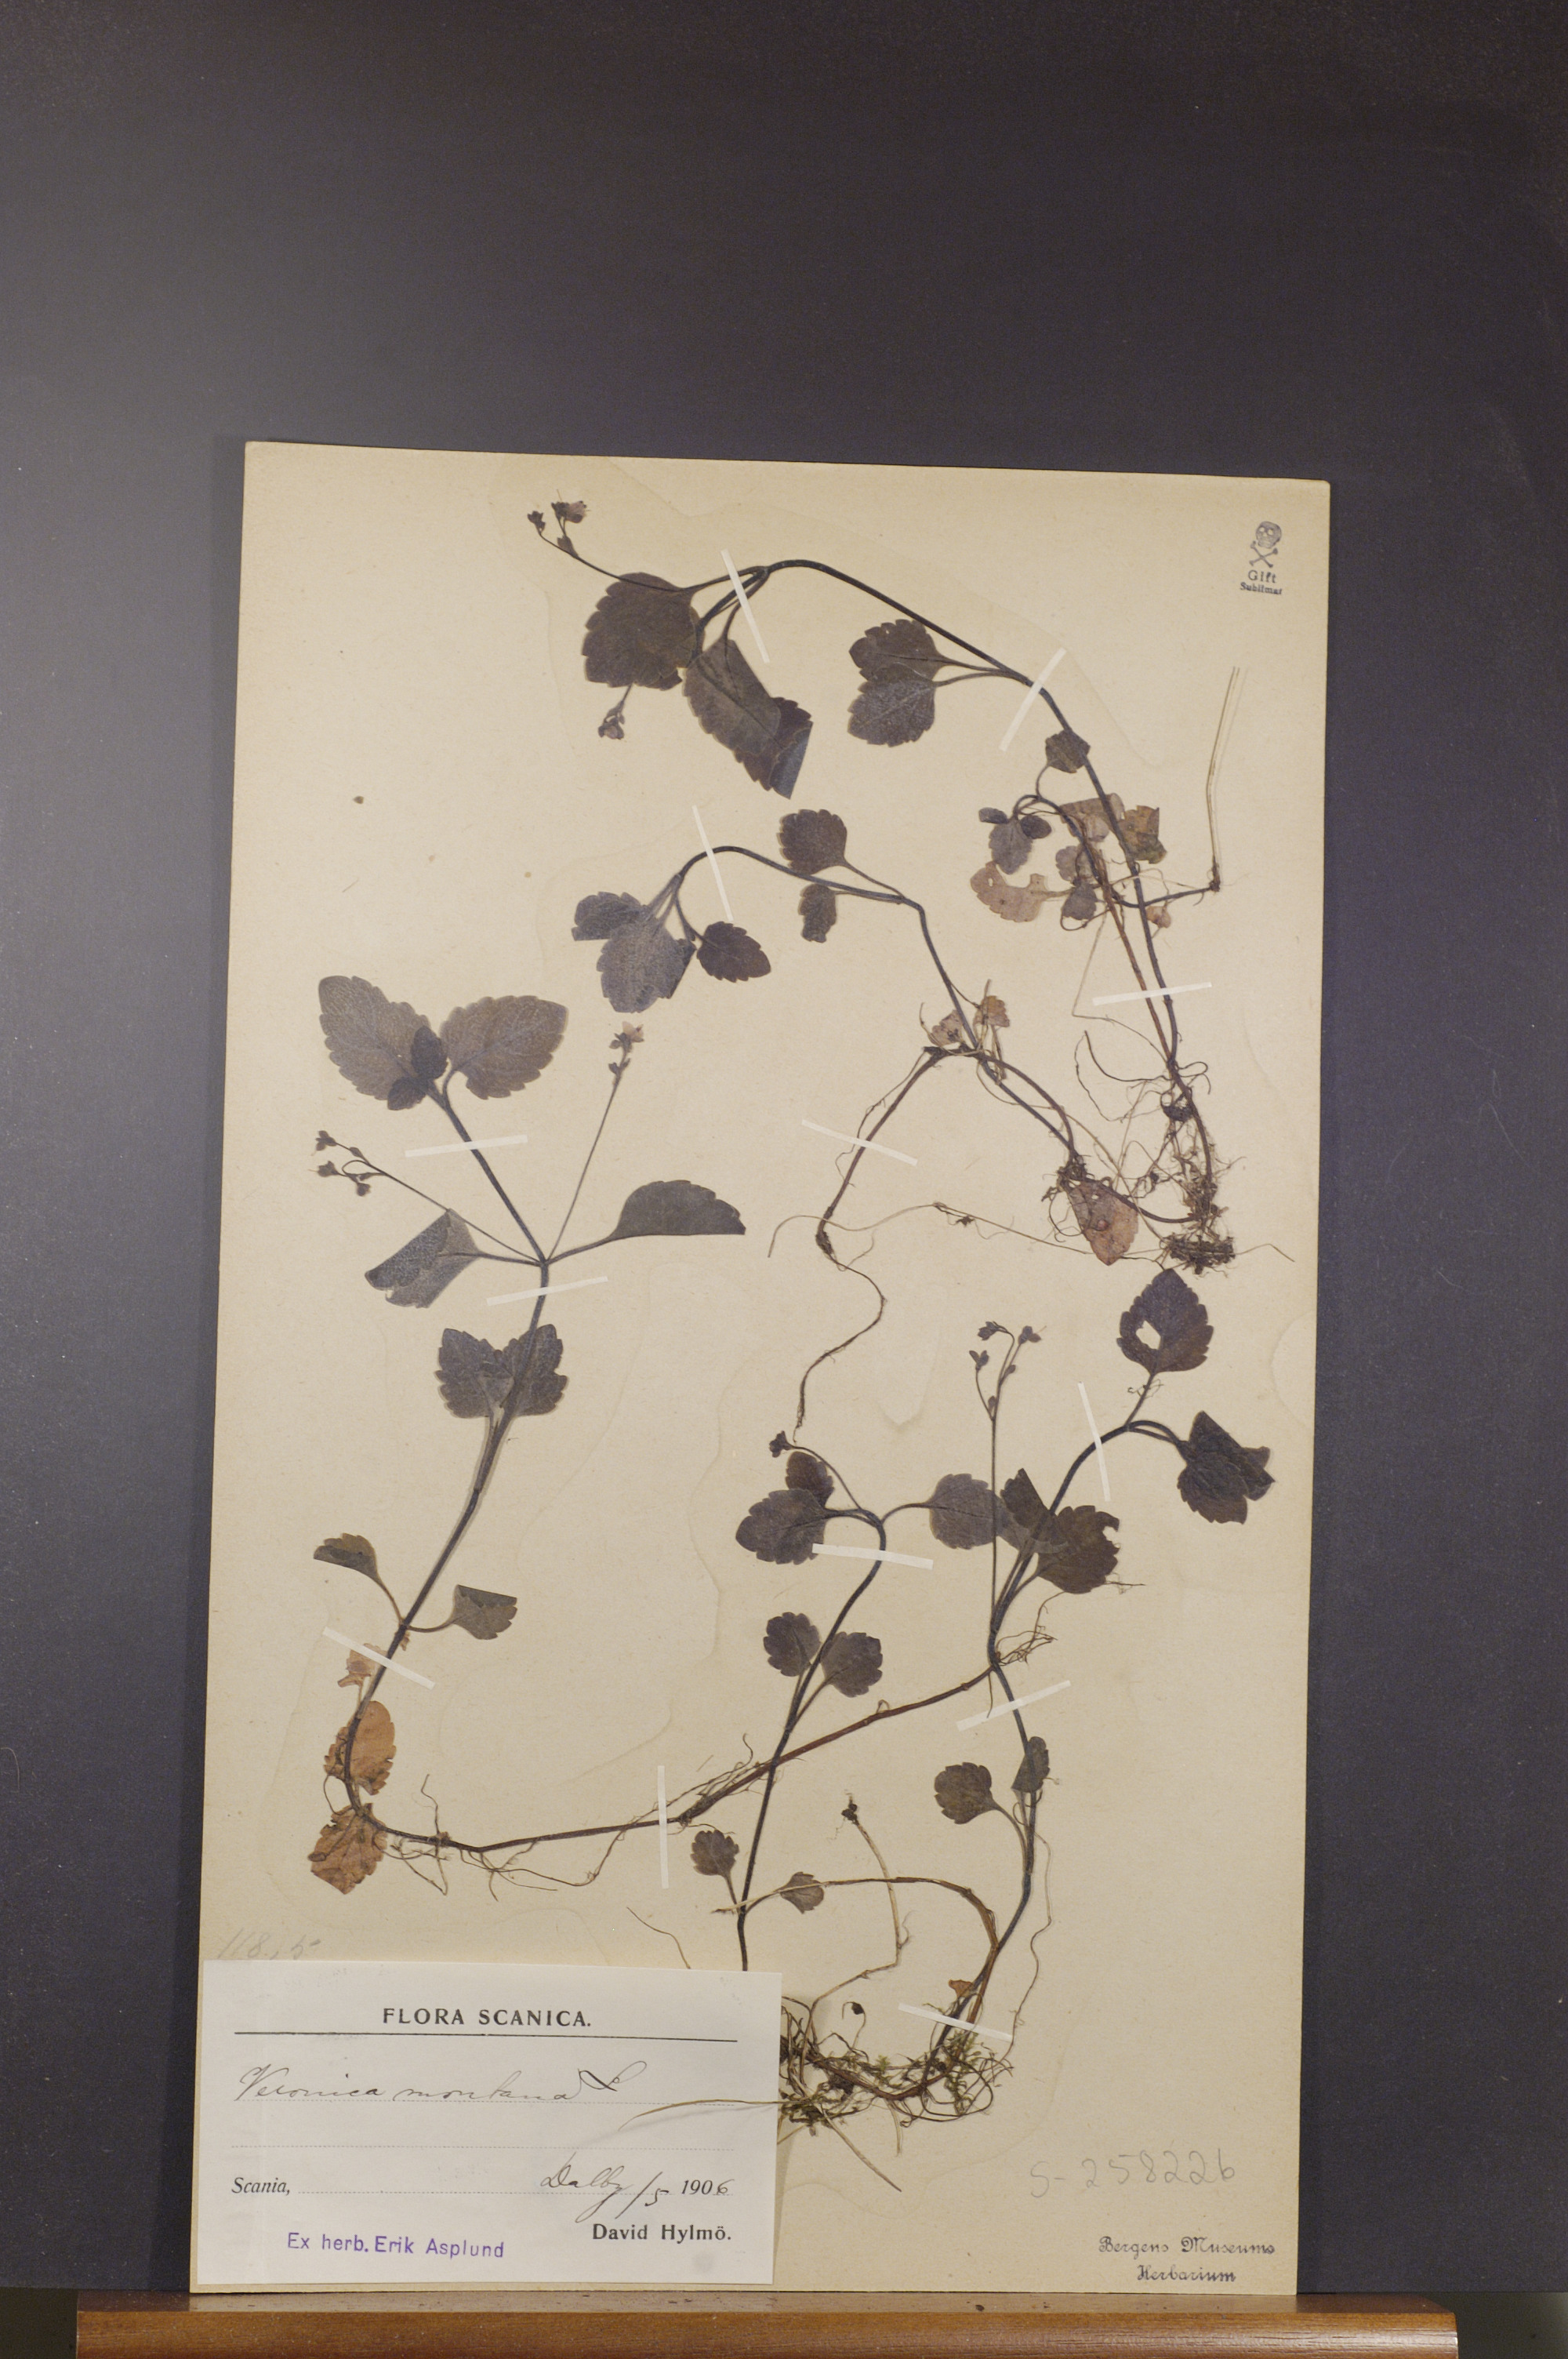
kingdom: Plantae
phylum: Tracheophyta
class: Magnoliopsida
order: Lamiales
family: Plantaginaceae
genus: Veronica
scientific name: Veronica montana
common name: Wood speedwell
